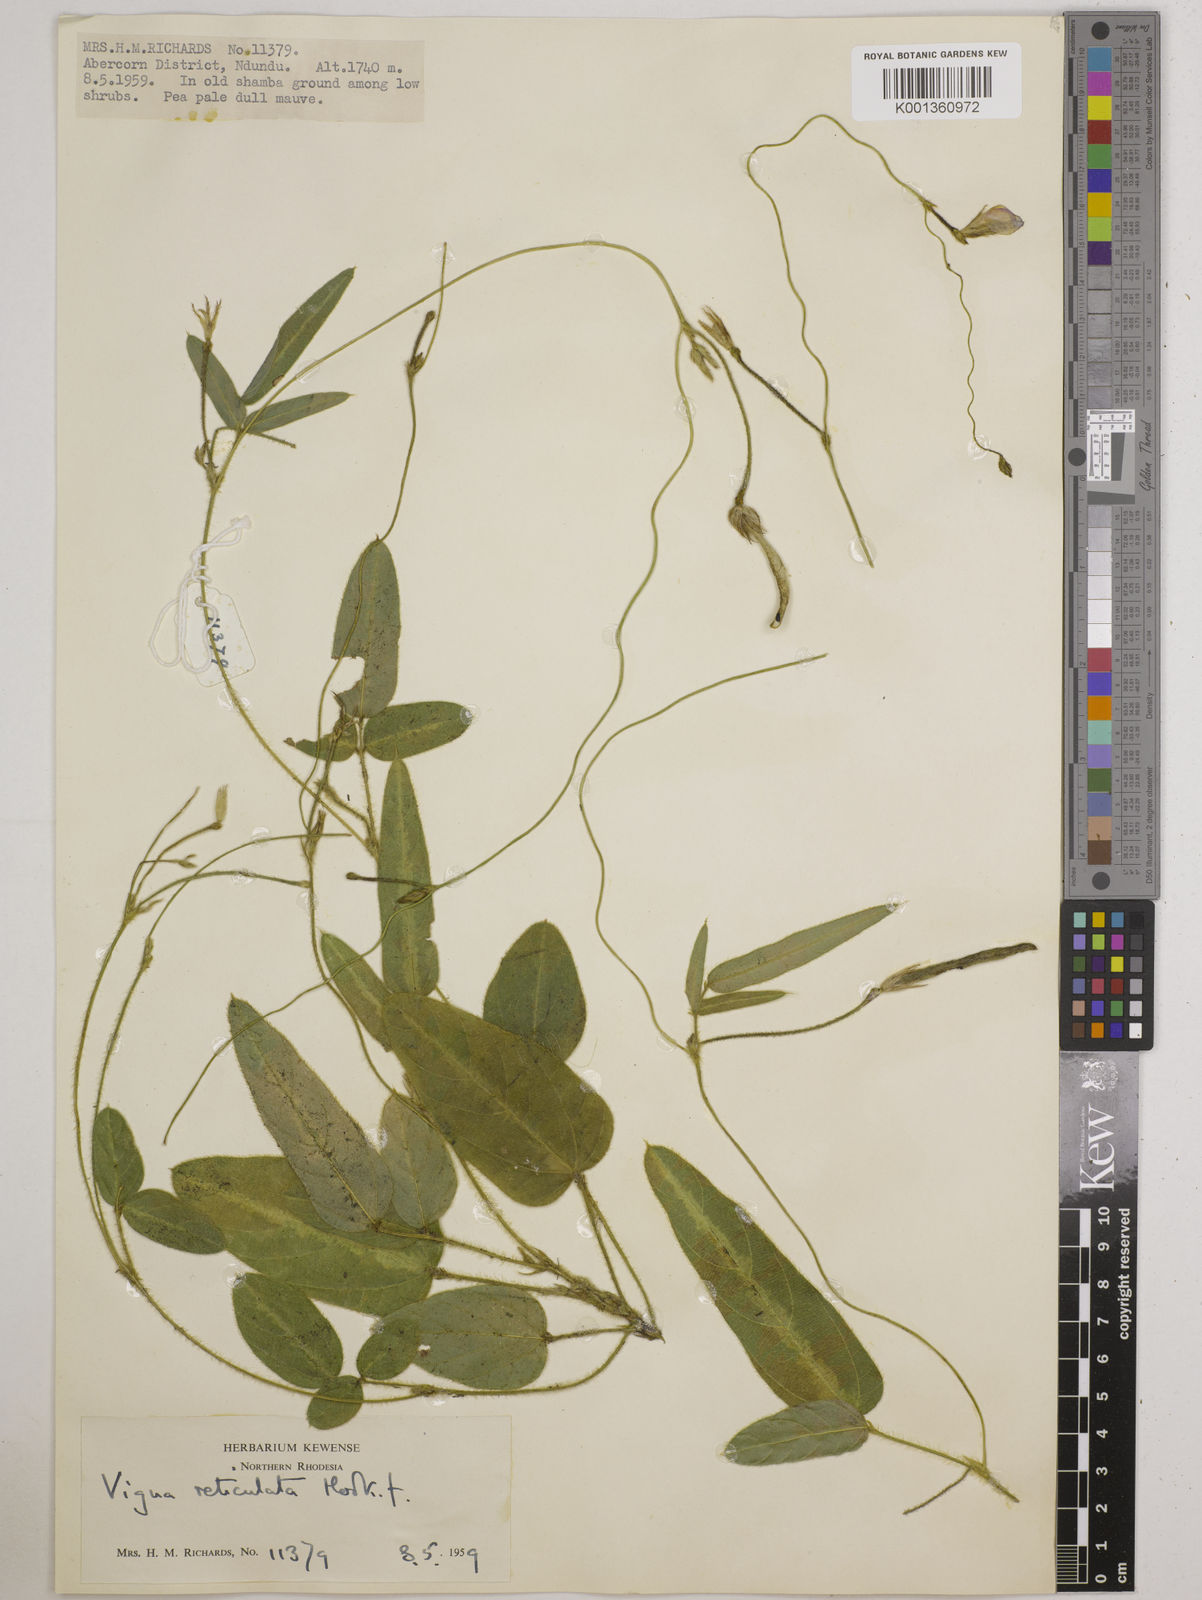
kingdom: Plantae
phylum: Tracheophyta
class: Magnoliopsida
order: Fabales
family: Fabaceae
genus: Vigna
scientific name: Vigna reticulata
